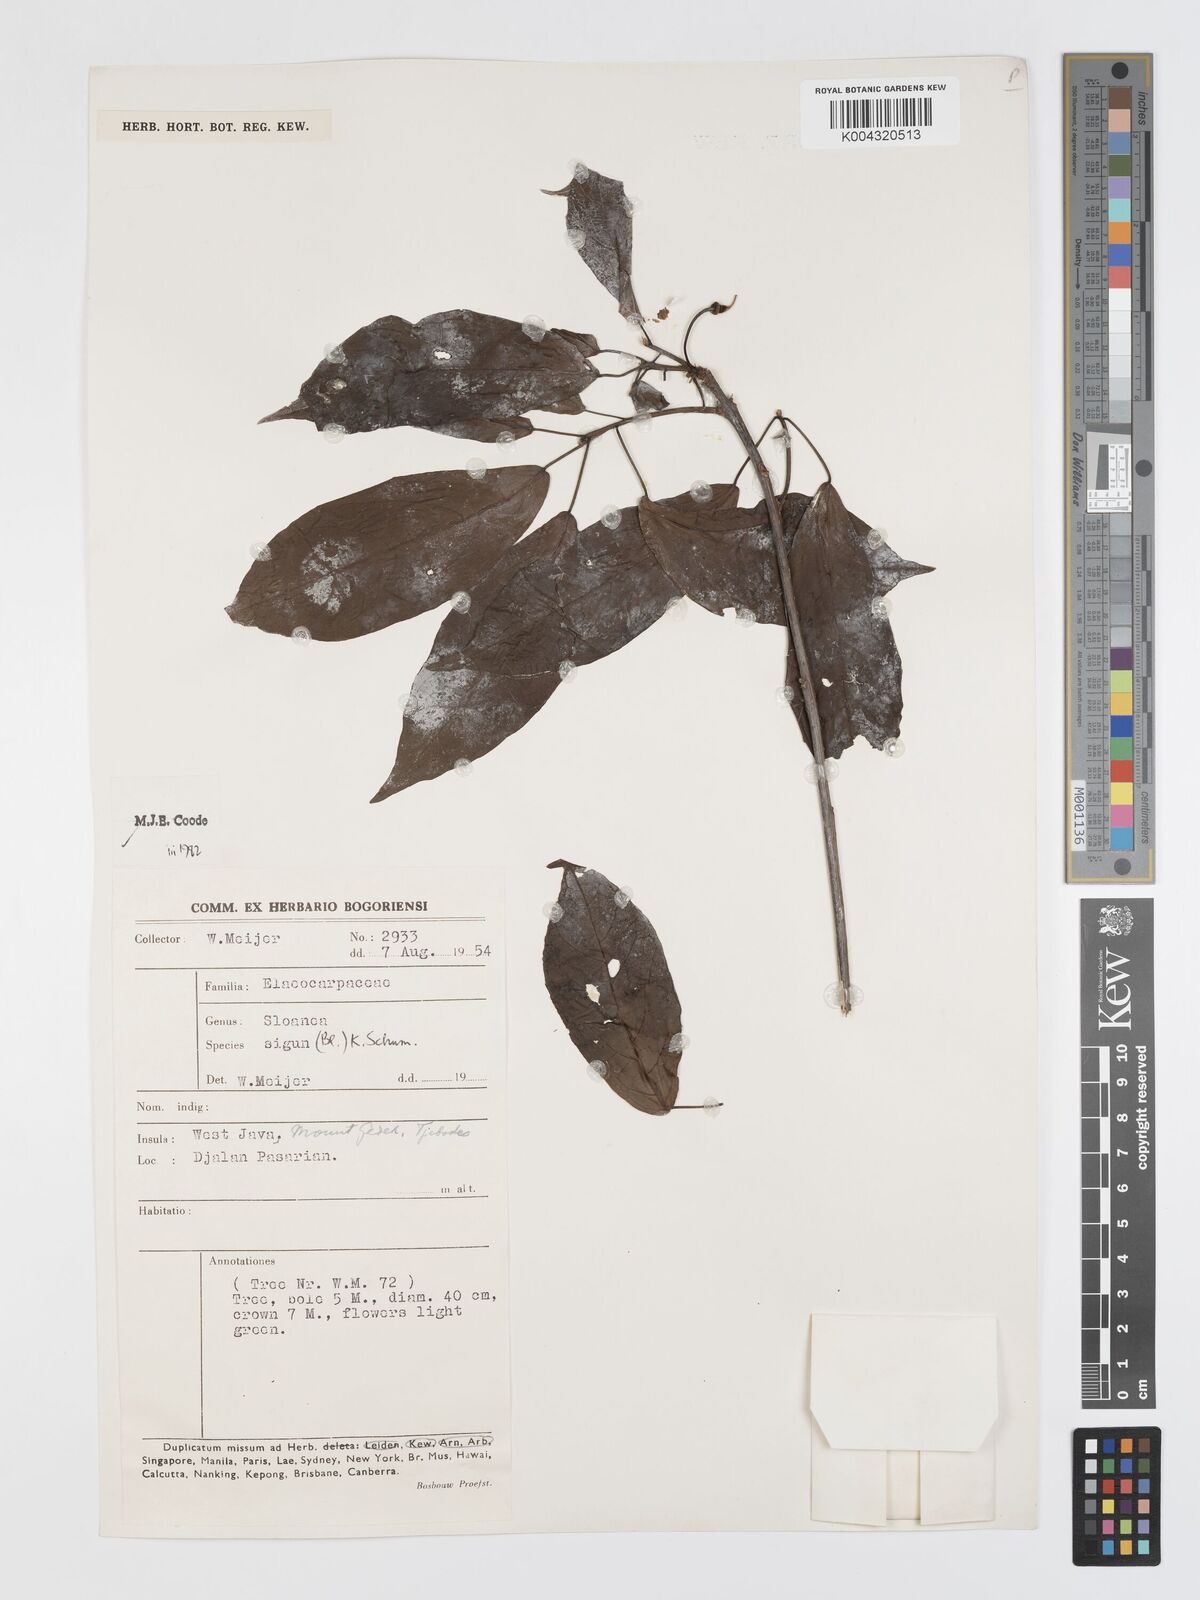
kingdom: Plantae
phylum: Tracheophyta
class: Magnoliopsida
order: Oxalidales
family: Elaeocarpaceae
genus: Sloanea
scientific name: Sloanea sigun
